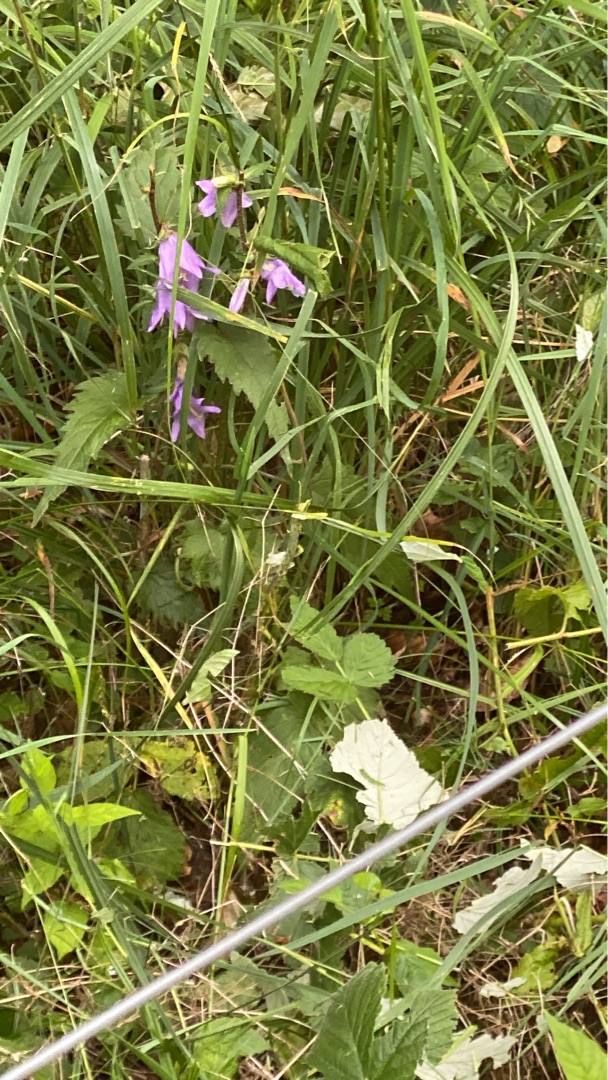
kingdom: Plantae
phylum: Tracheophyta
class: Magnoliopsida
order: Asterales
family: Campanulaceae
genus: Campanula
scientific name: Campanula trachelium
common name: Nælde-klokke
